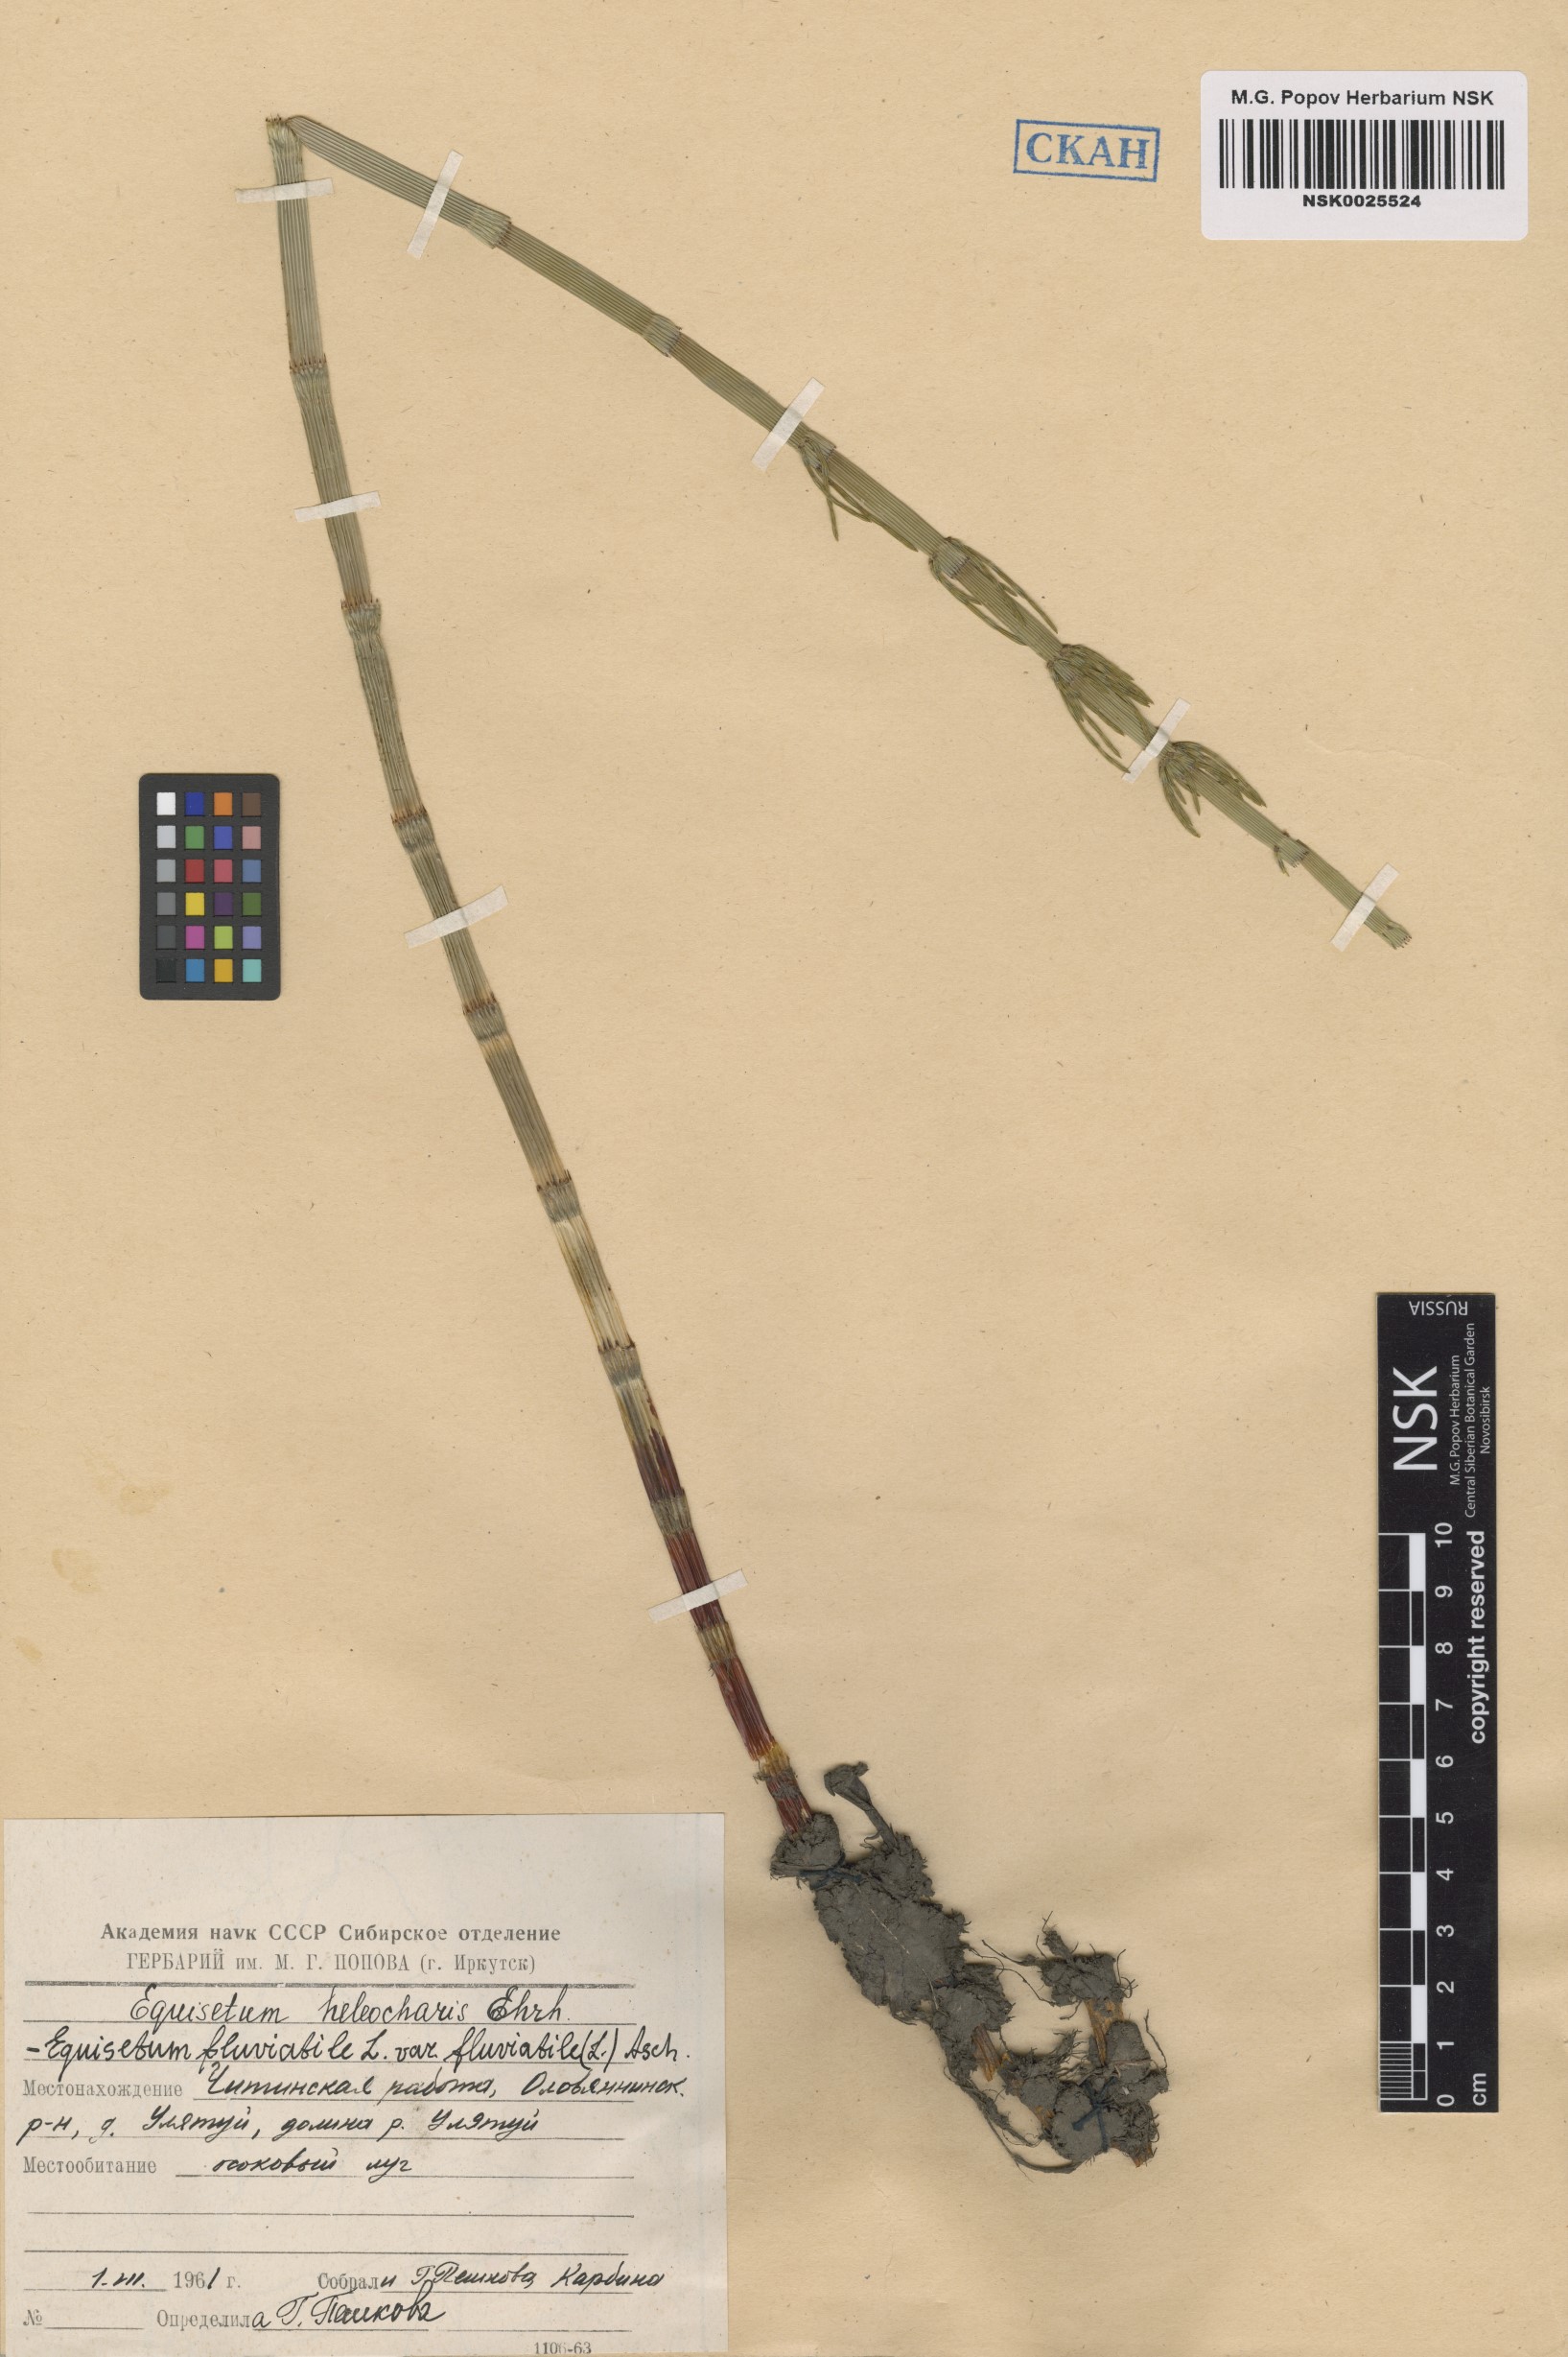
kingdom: Plantae
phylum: Tracheophyta
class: Polypodiopsida
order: Equisetales
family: Equisetaceae
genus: Equisetum
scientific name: Equisetum fluviatile
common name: Water horsetail
